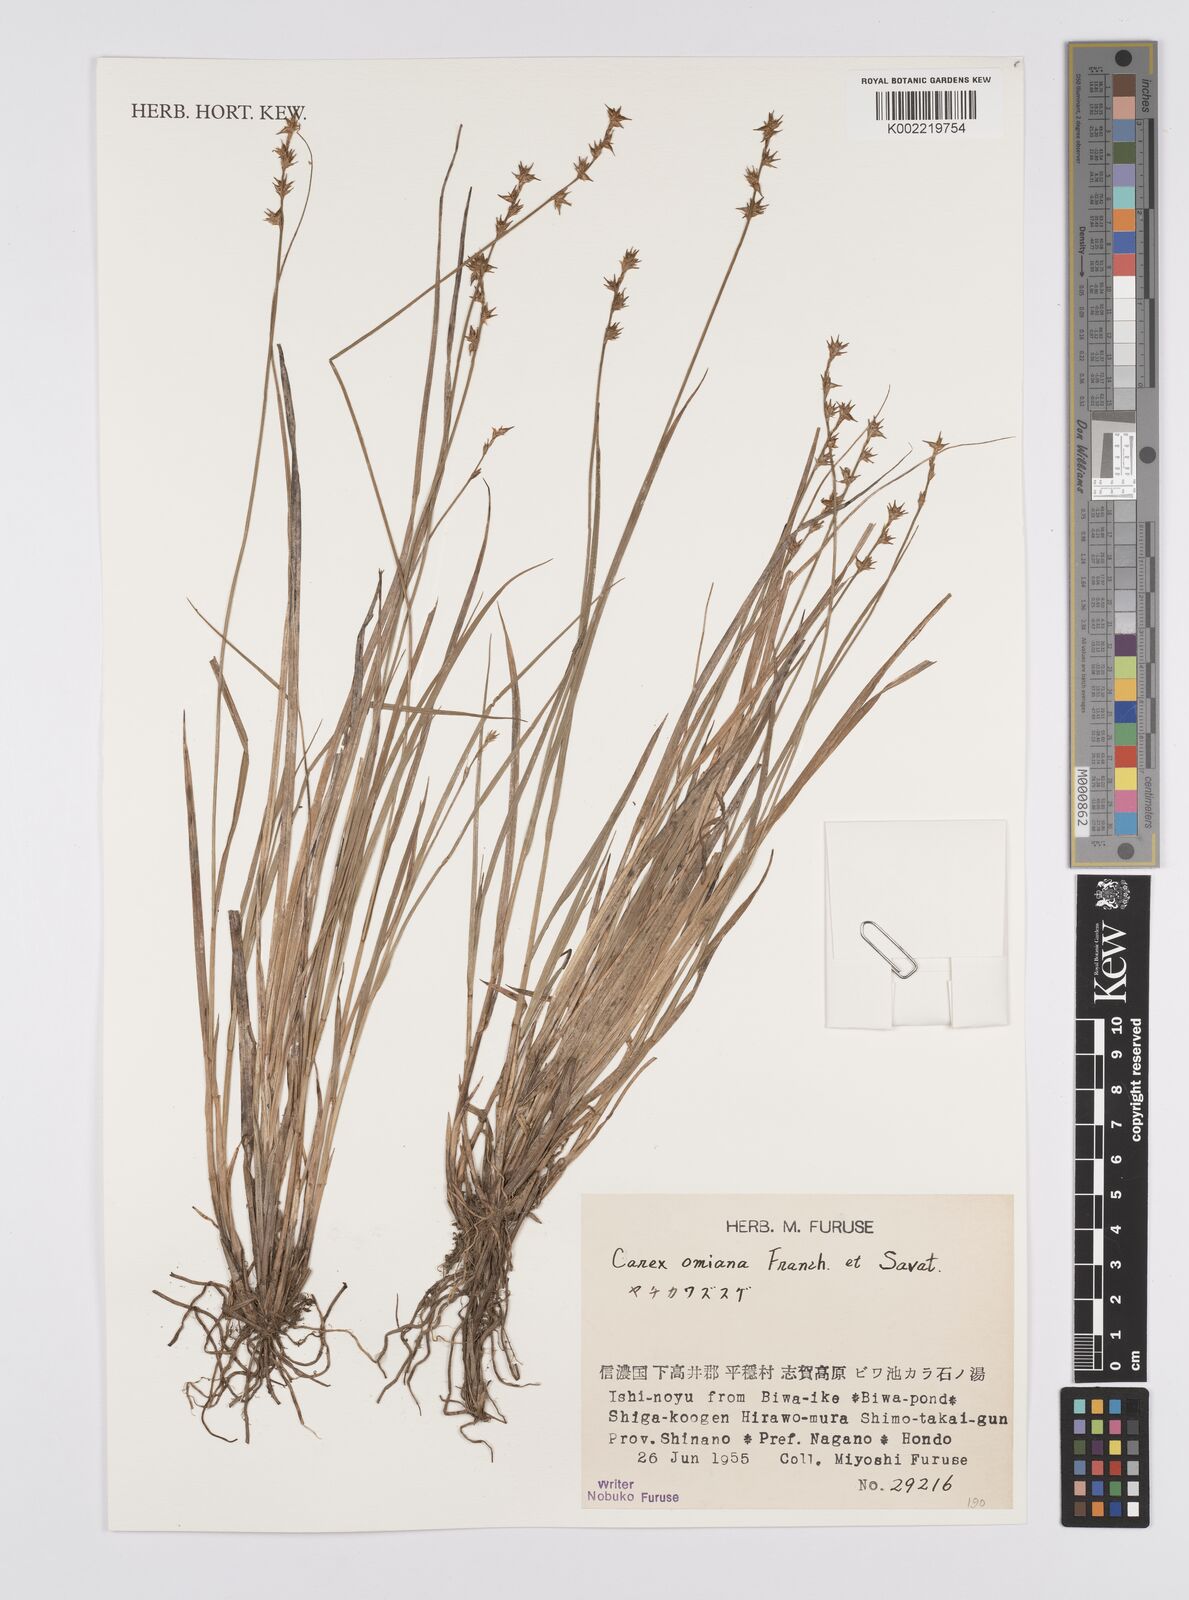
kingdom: Plantae
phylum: Tracheophyta
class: Liliopsida
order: Poales
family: Cyperaceae
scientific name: Cyperaceae
